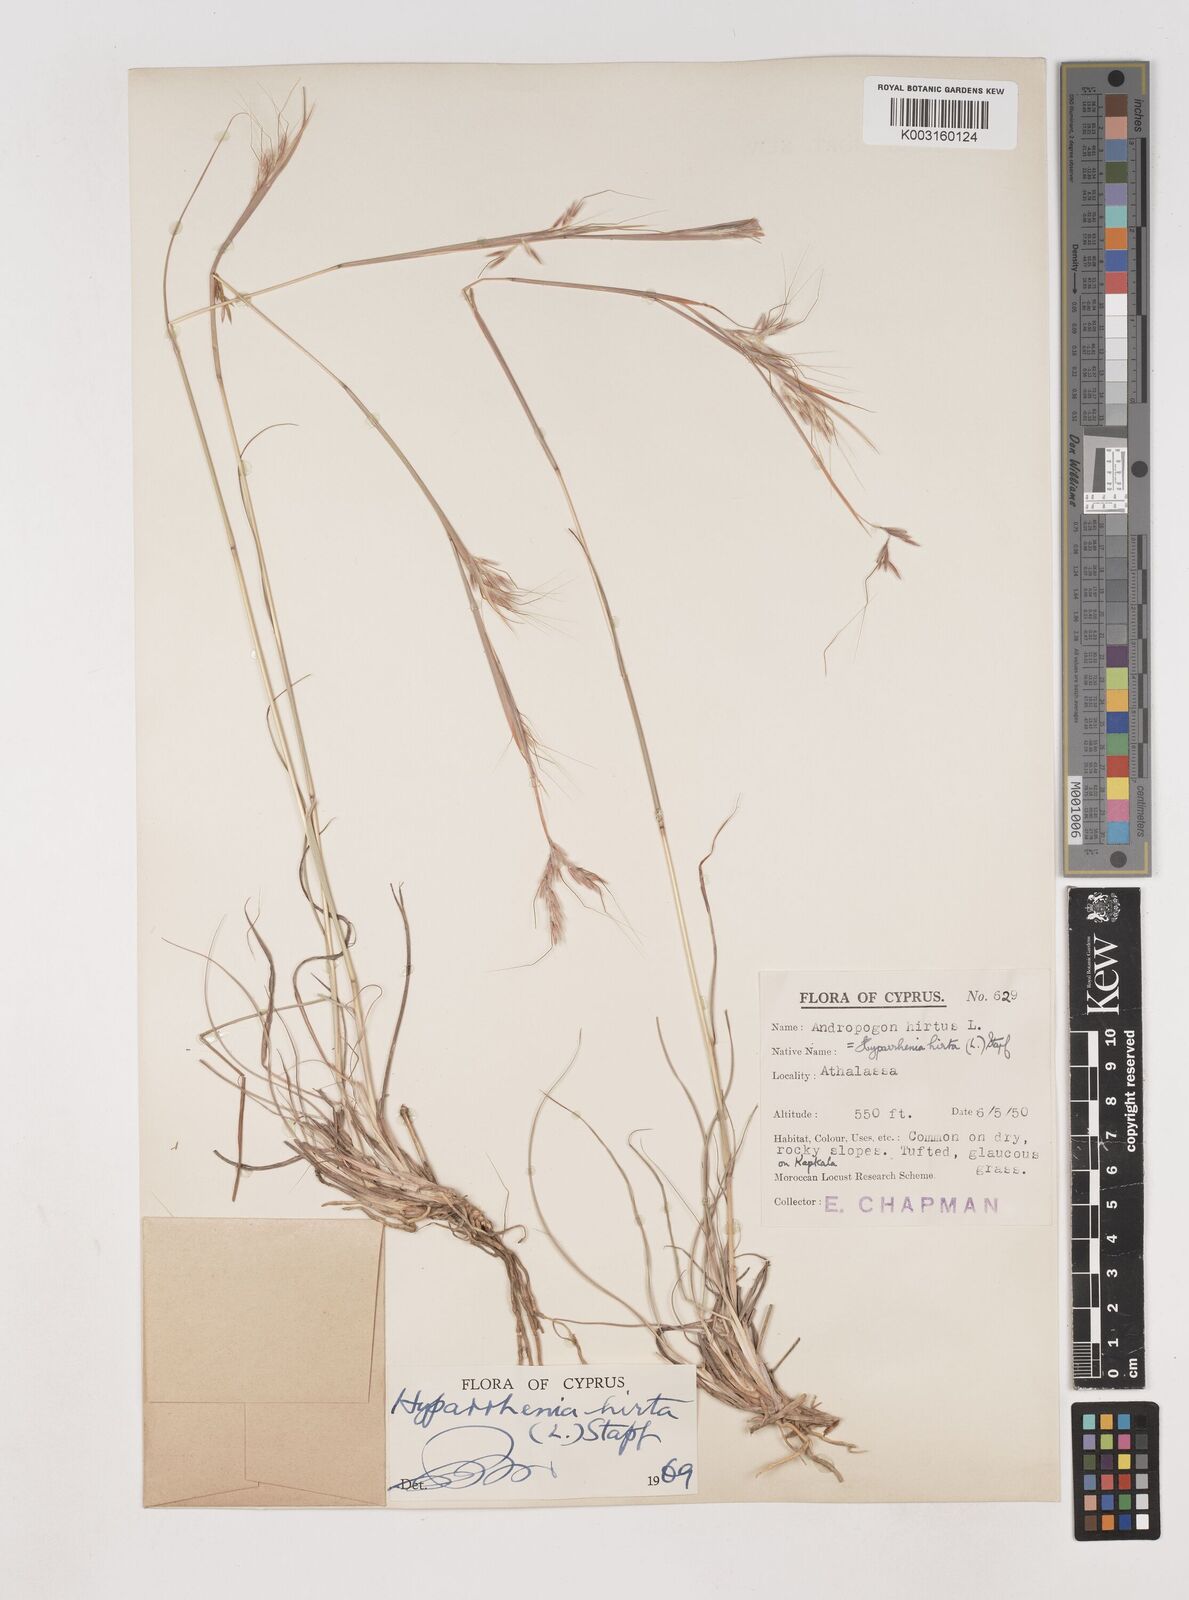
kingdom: Plantae
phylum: Tracheophyta
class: Liliopsida
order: Poales
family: Poaceae
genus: Hyparrhenia
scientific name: Hyparrhenia hirta
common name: Thatching grass
